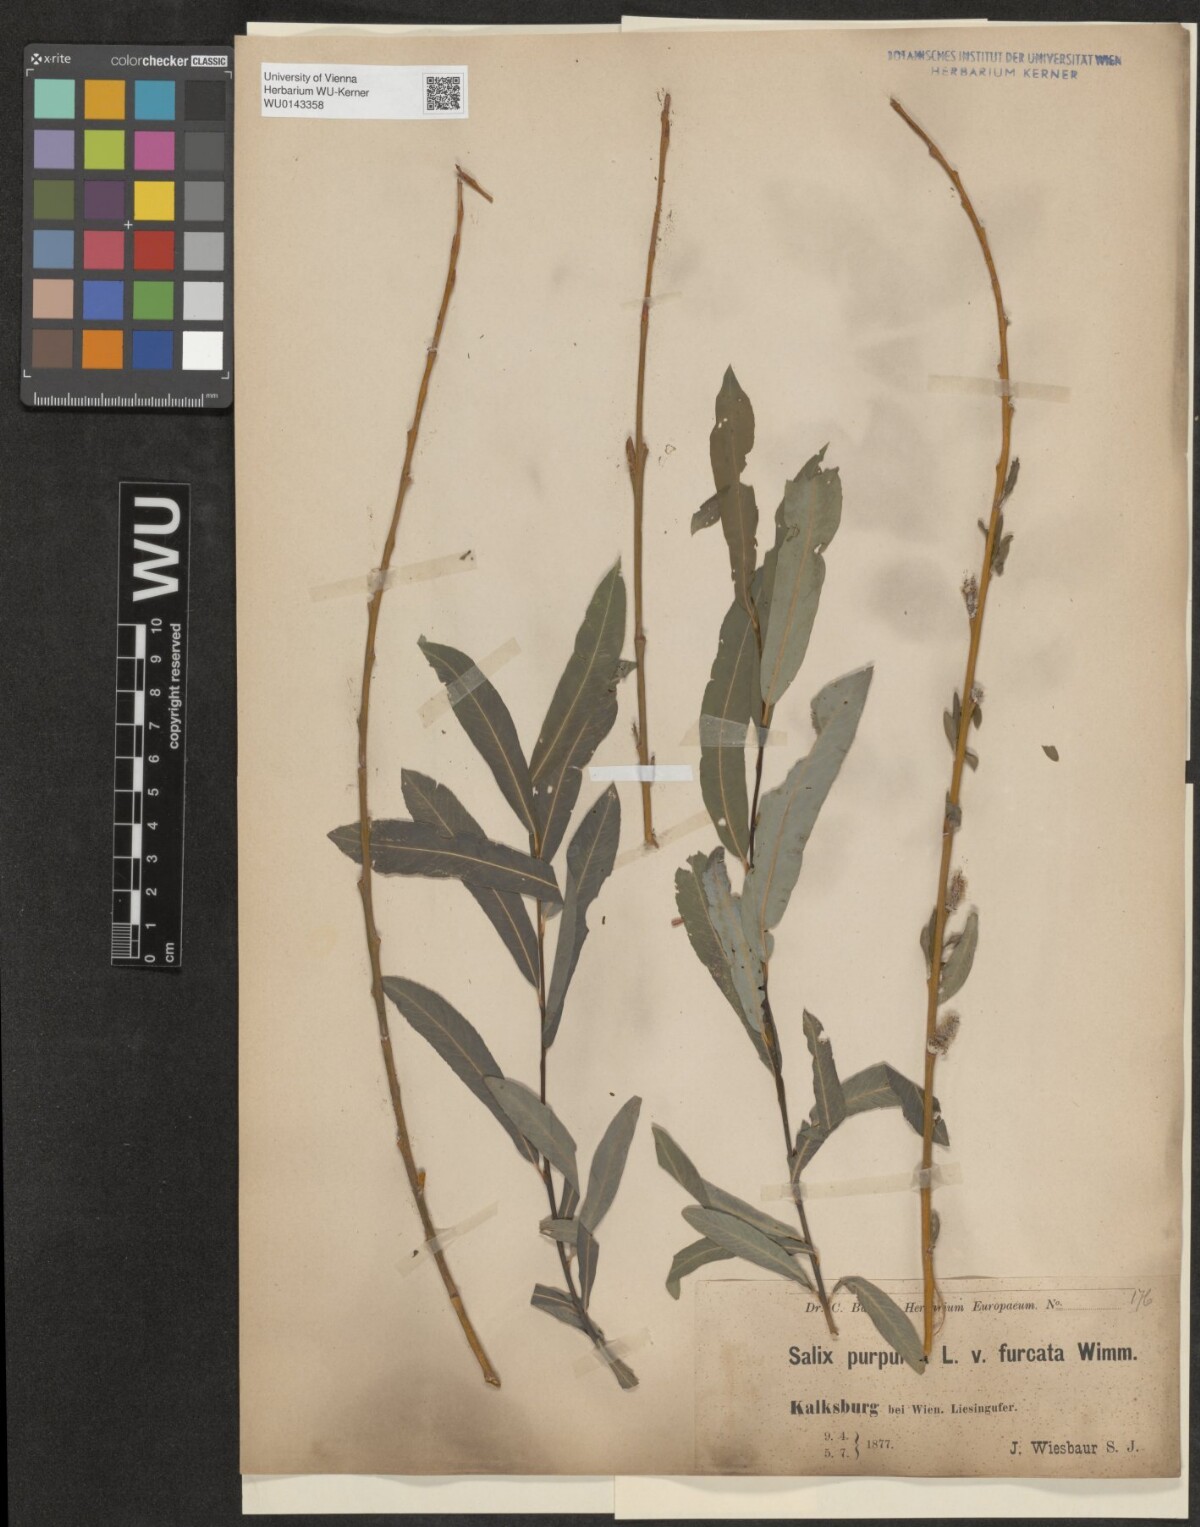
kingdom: Plantae
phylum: Tracheophyta
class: Magnoliopsida
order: Malpighiales
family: Salicaceae
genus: Salix
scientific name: Salix purpurea
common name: Purple willow
